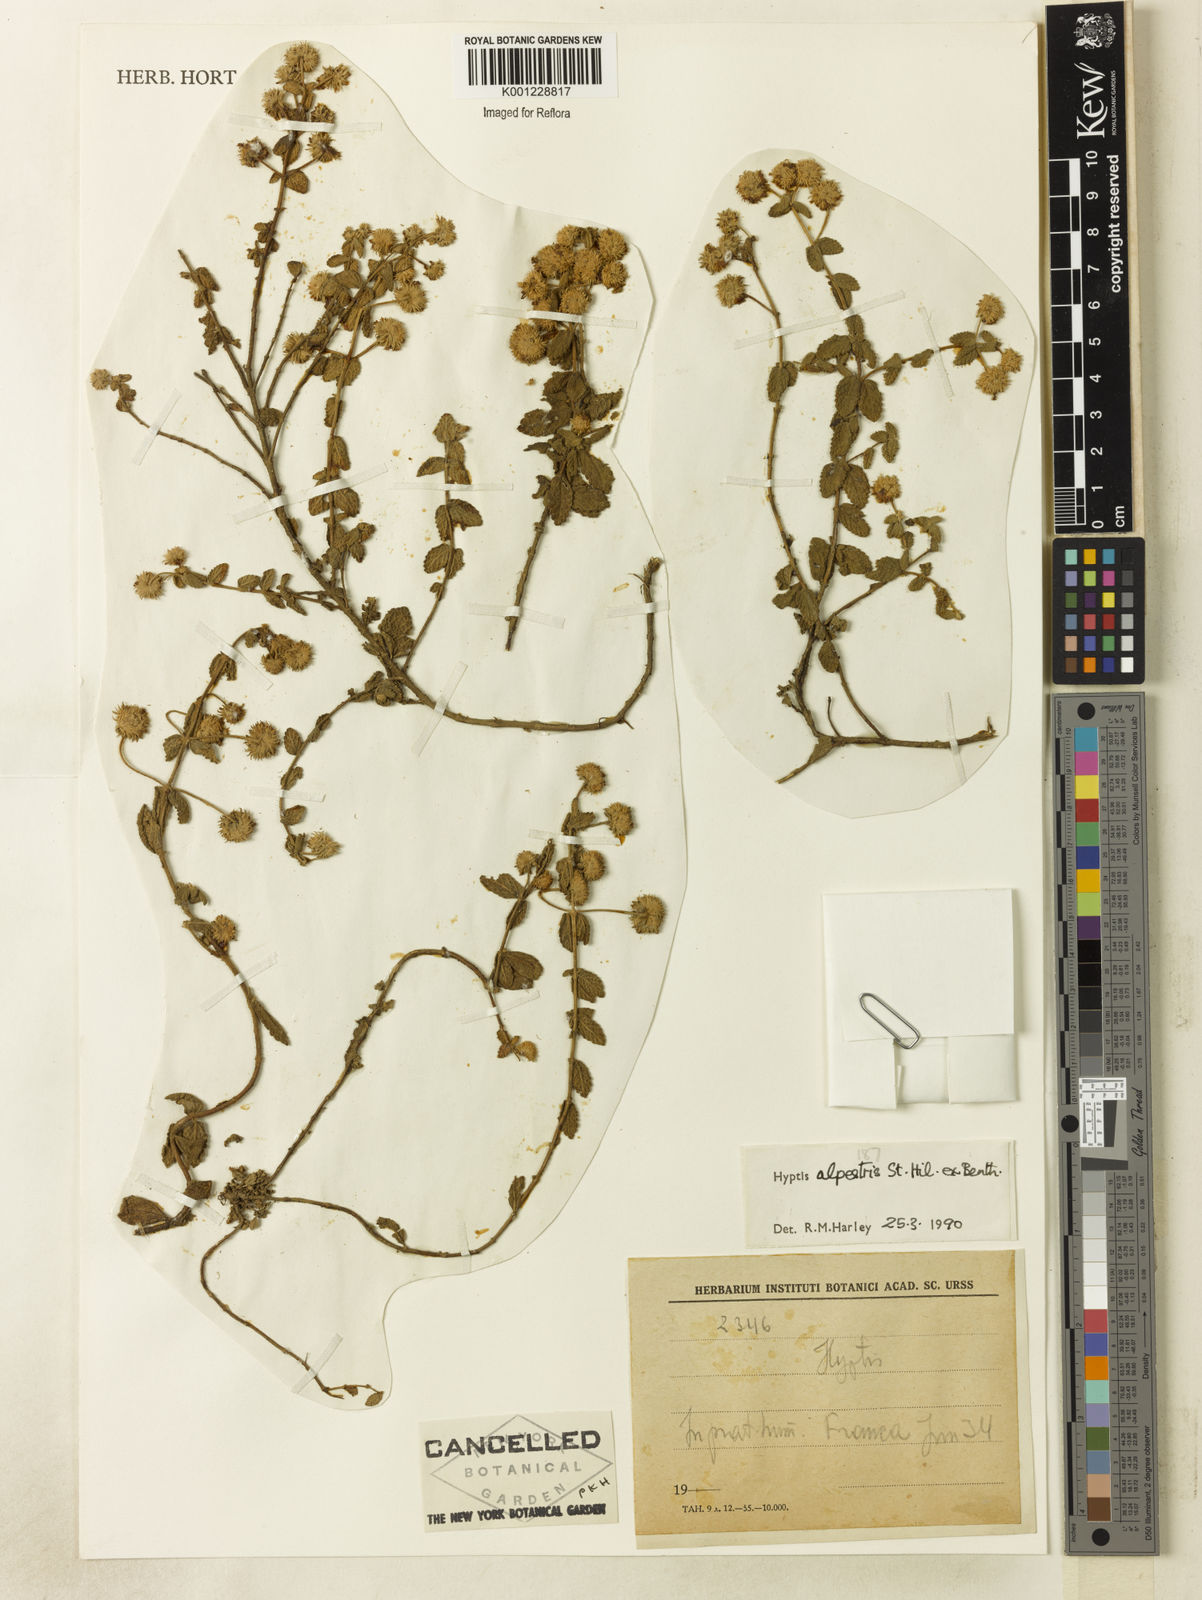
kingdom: Plantae
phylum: Tracheophyta
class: Magnoliopsida
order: Lamiales
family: Lamiaceae
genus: Hyptis
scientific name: Hyptis alpestris
